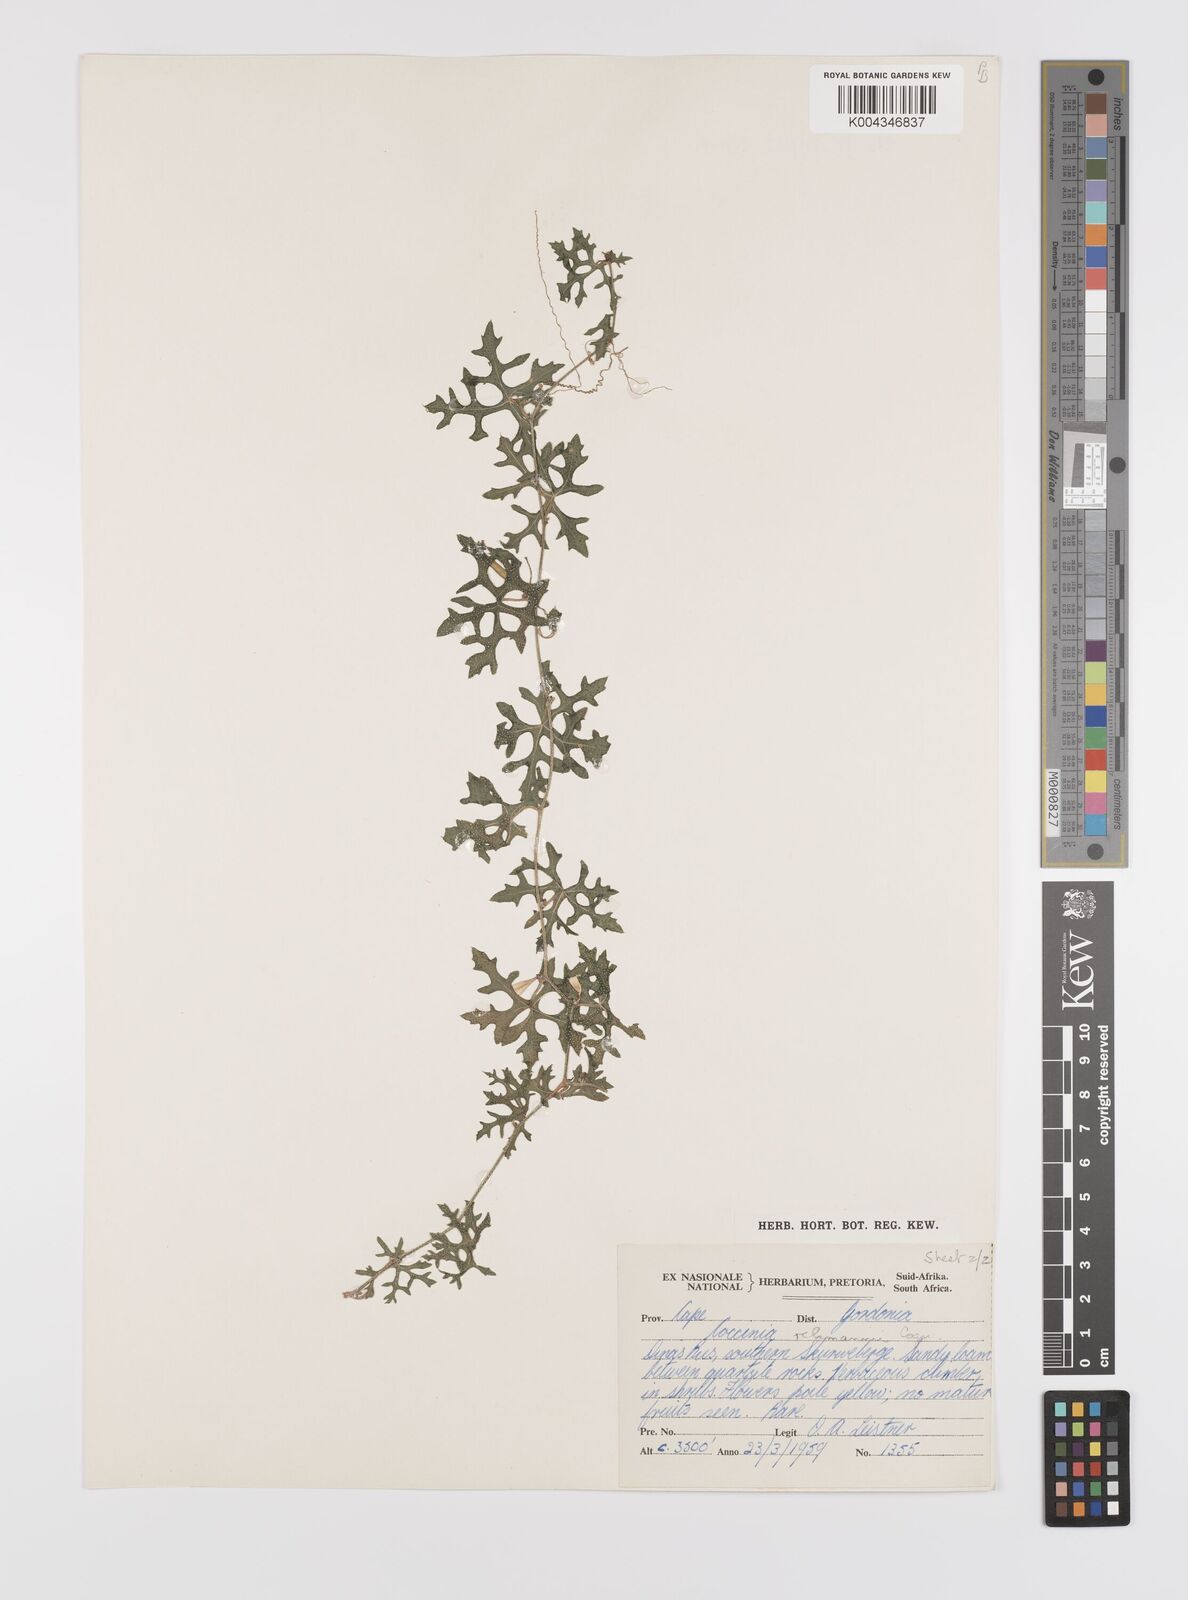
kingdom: Plantae
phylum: Tracheophyta
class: Magnoliopsida
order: Cucurbitales
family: Cucurbitaceae
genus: Coccinia
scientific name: Coccinia rehmannii
